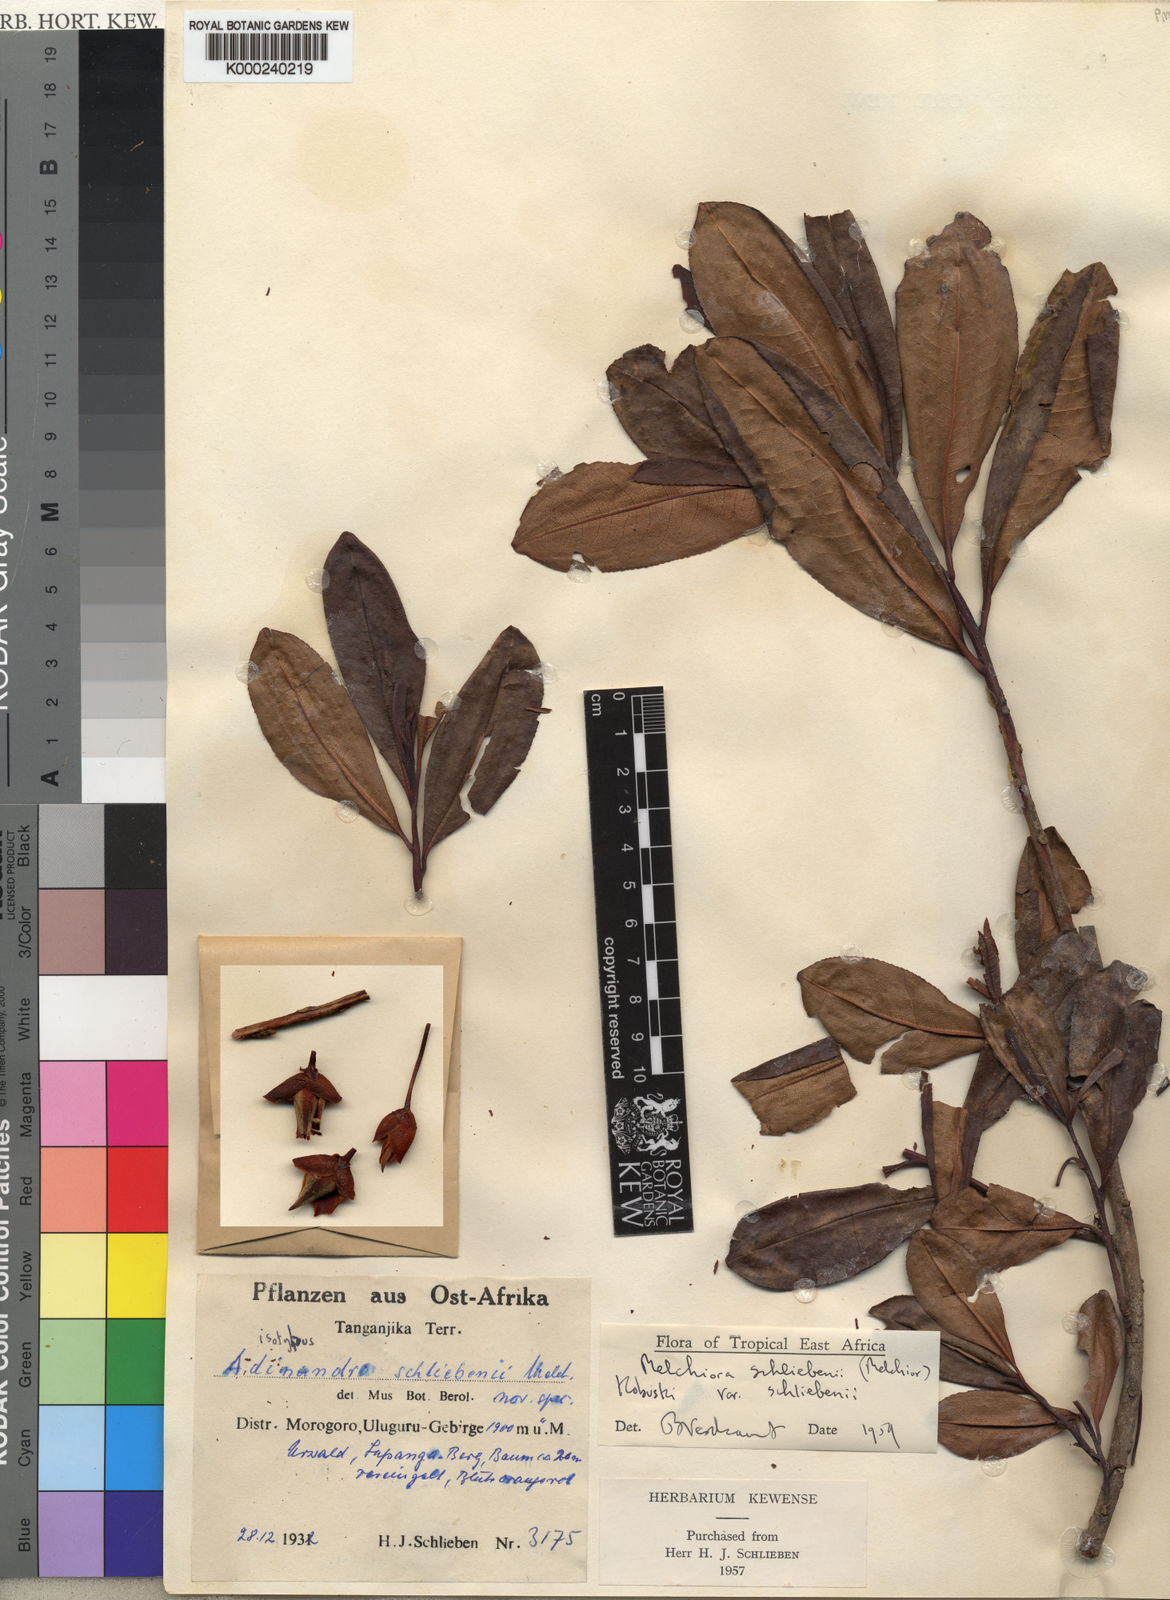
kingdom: Plantae
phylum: Tracheophyta
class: Magnoliopsida
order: Ericales
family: Pentaphylacaceae
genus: Balthasaria
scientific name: Balthasaria schliebenii
